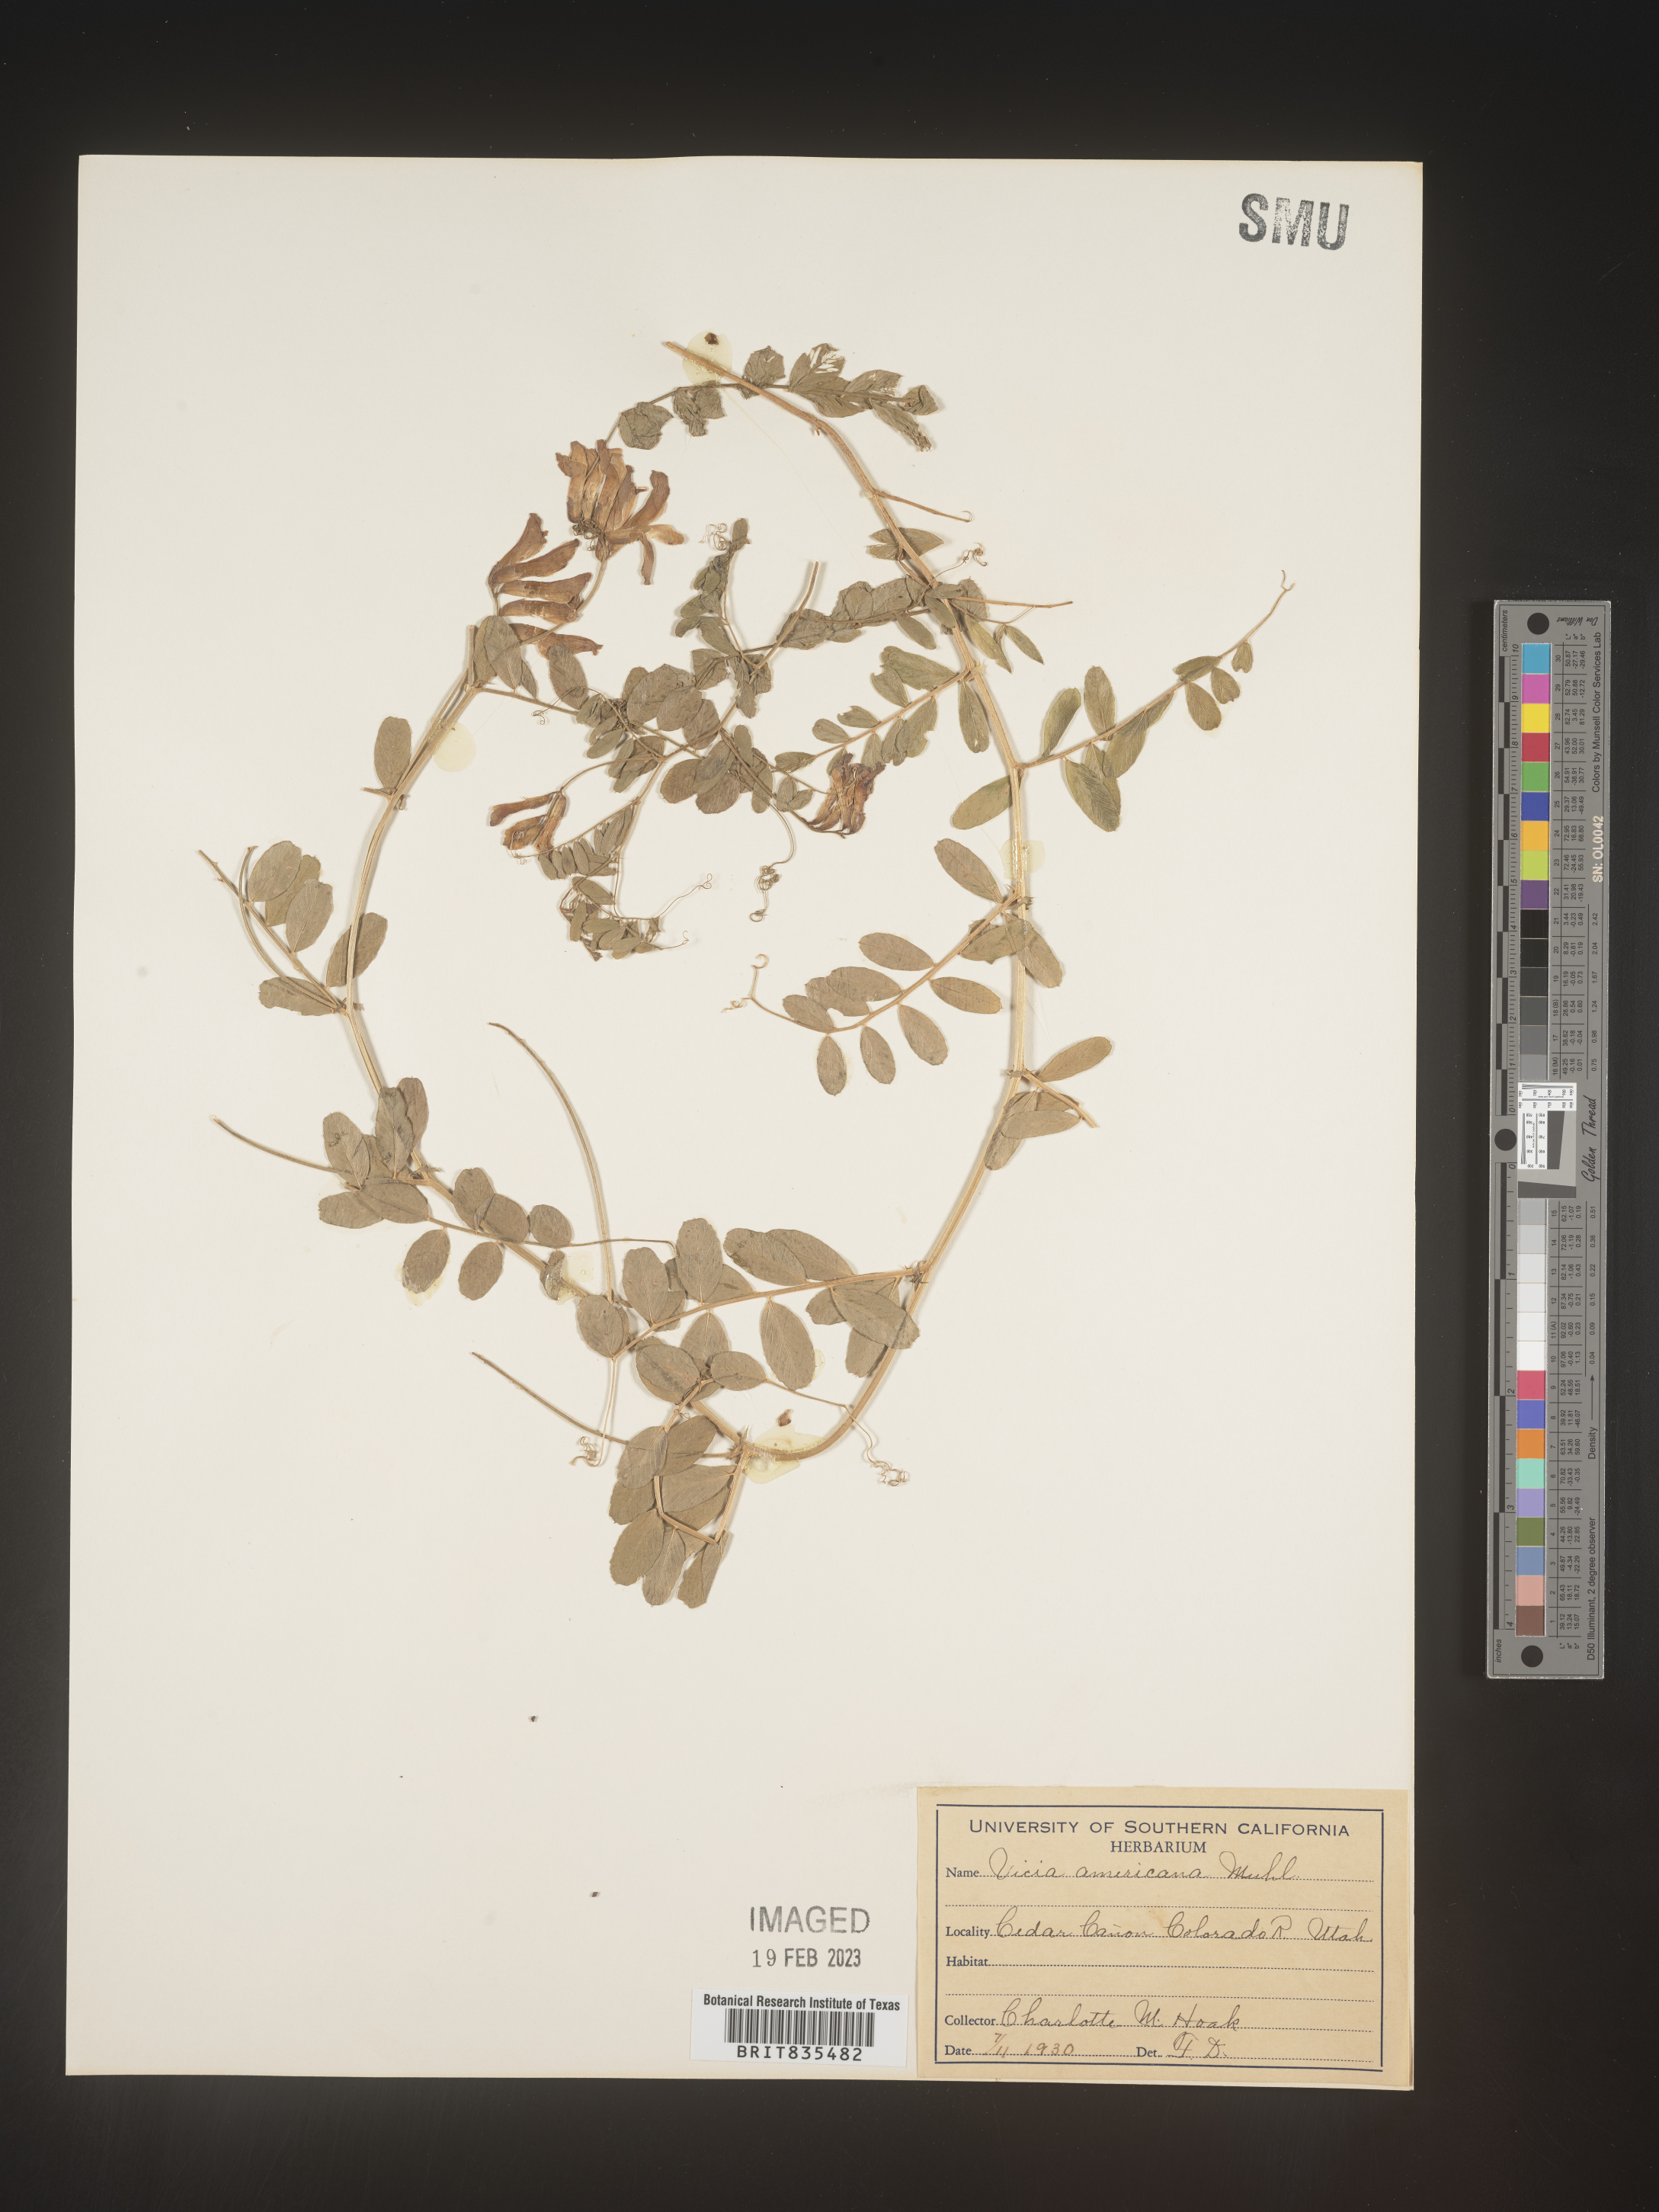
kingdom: Plantae
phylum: Tracheophyta
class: Magnoliopsida
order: Fabales
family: Fabaceae
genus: Vicia
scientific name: Vicia americana
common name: American vetch
